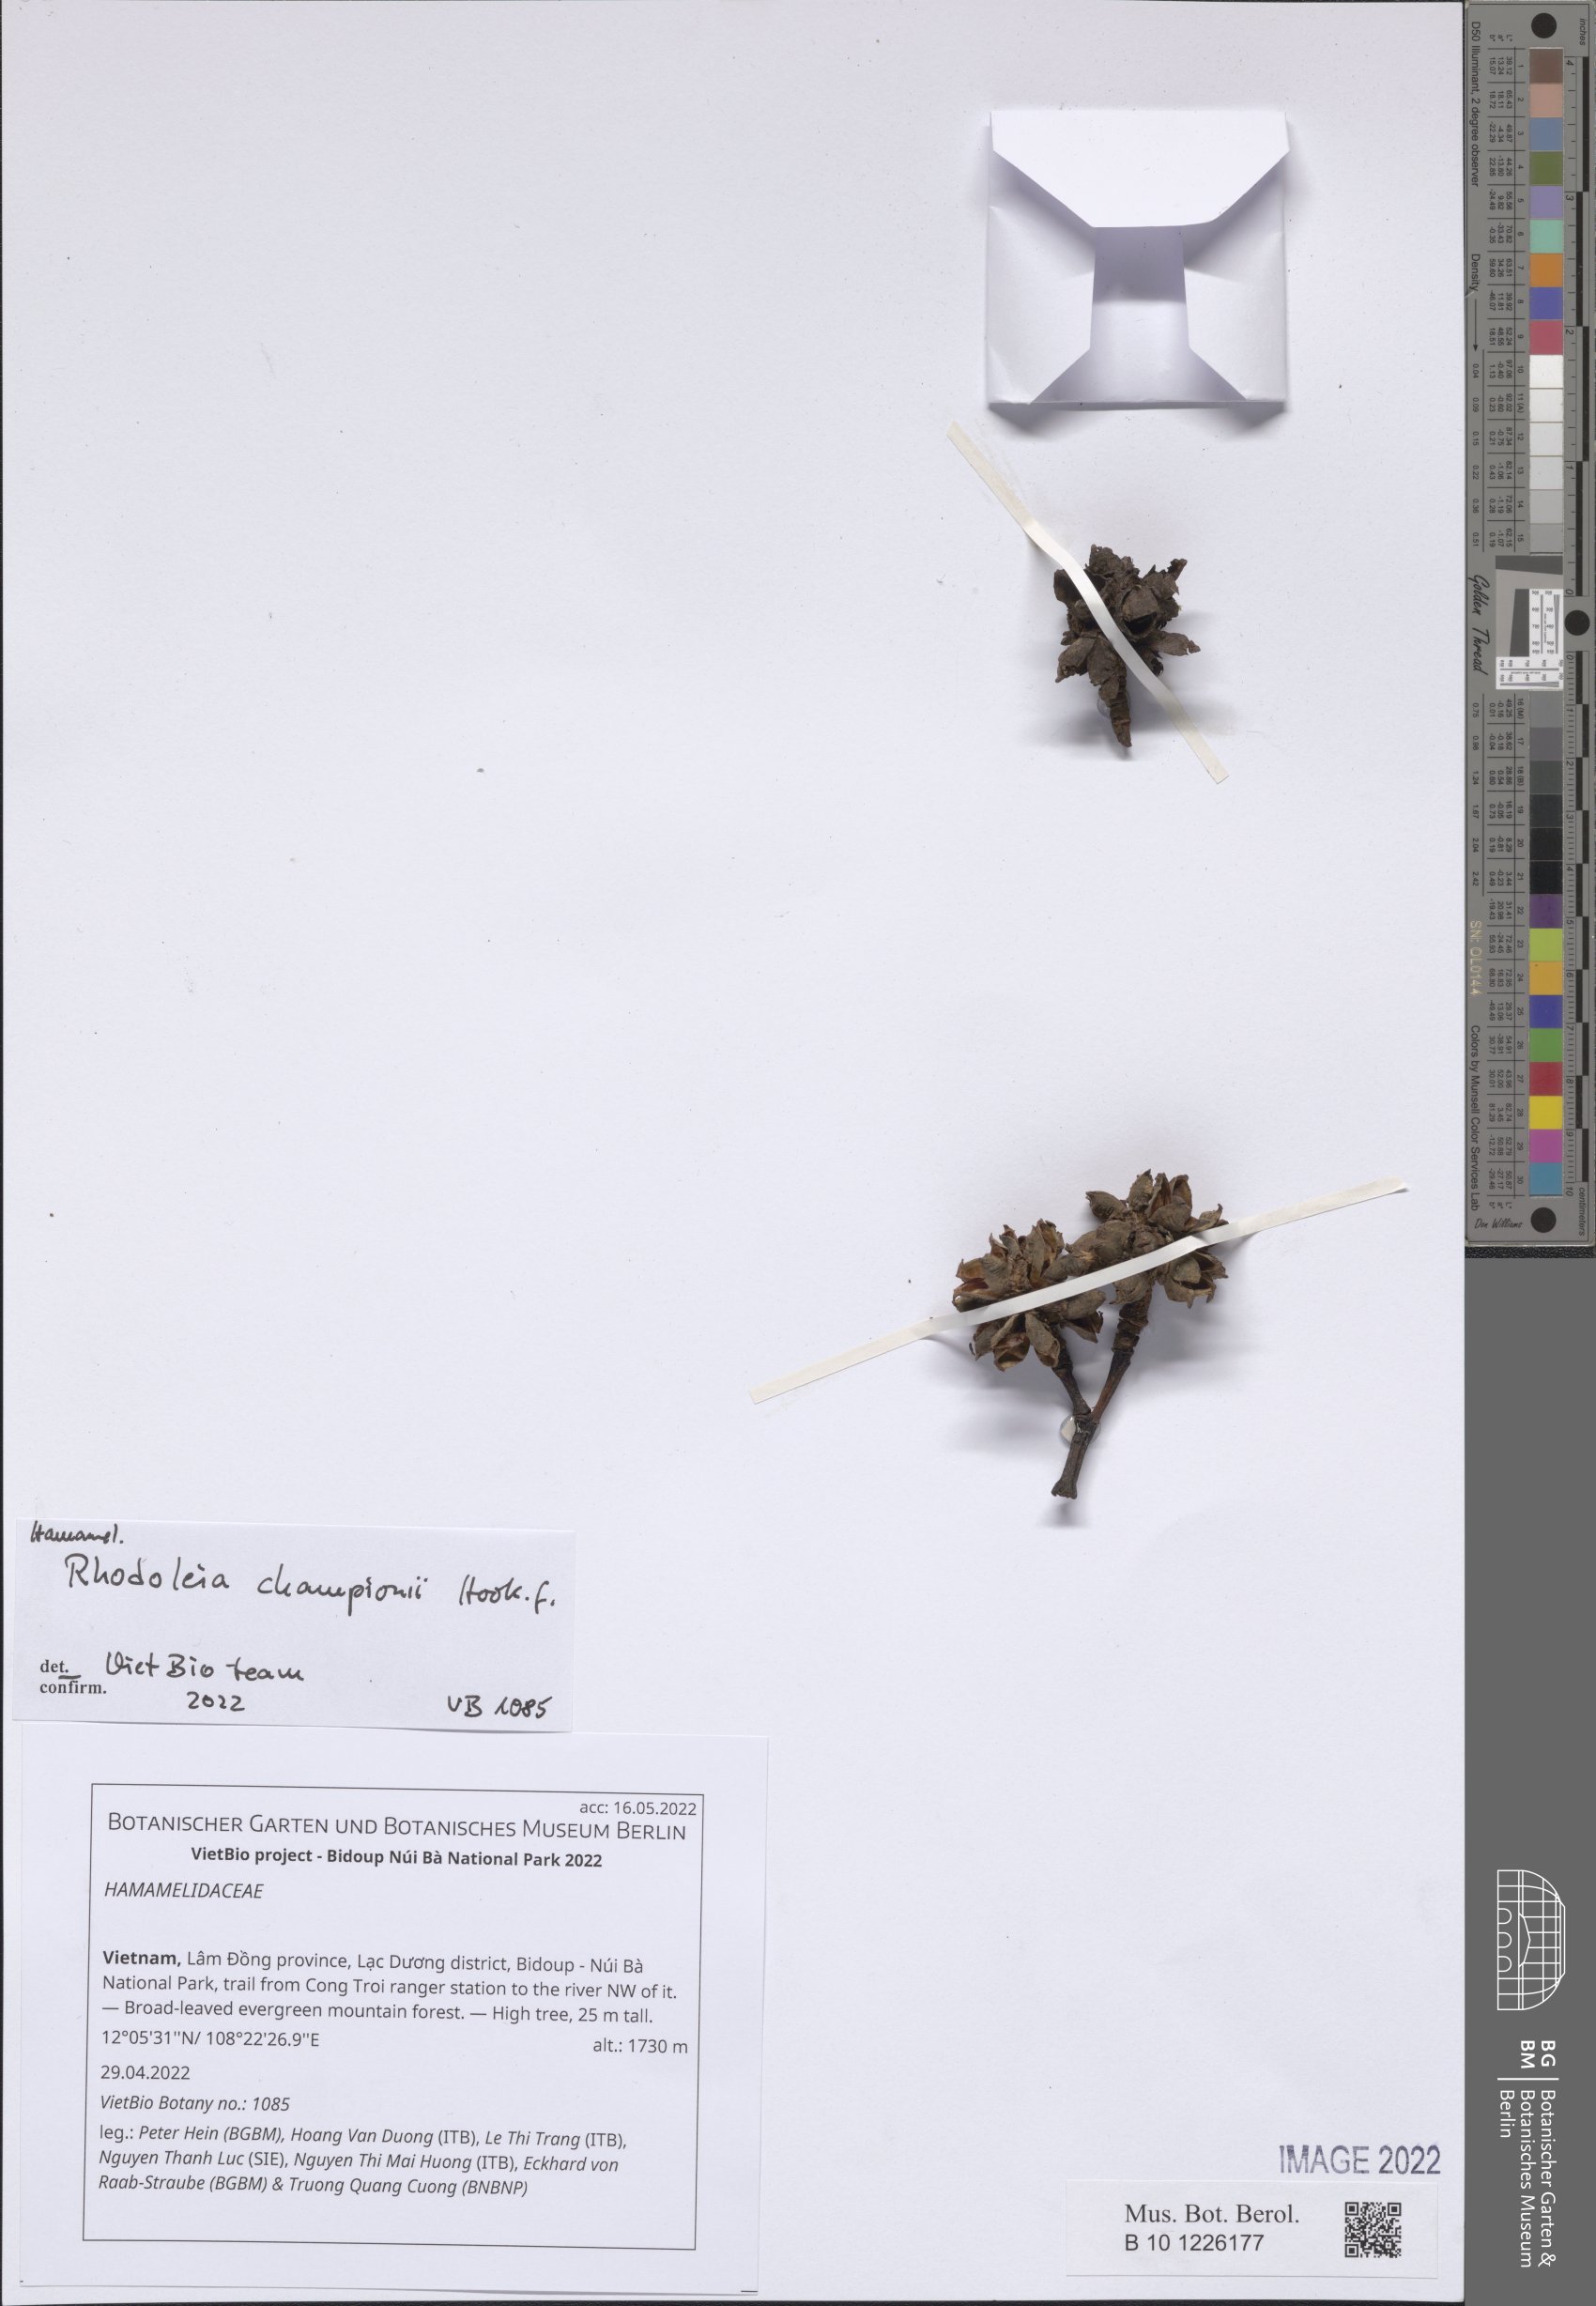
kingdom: Plantae
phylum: Tracheophyta
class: Magnoliopsida
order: Saxifragales
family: Hamamelidaceae
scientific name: Hamamelidaceae
